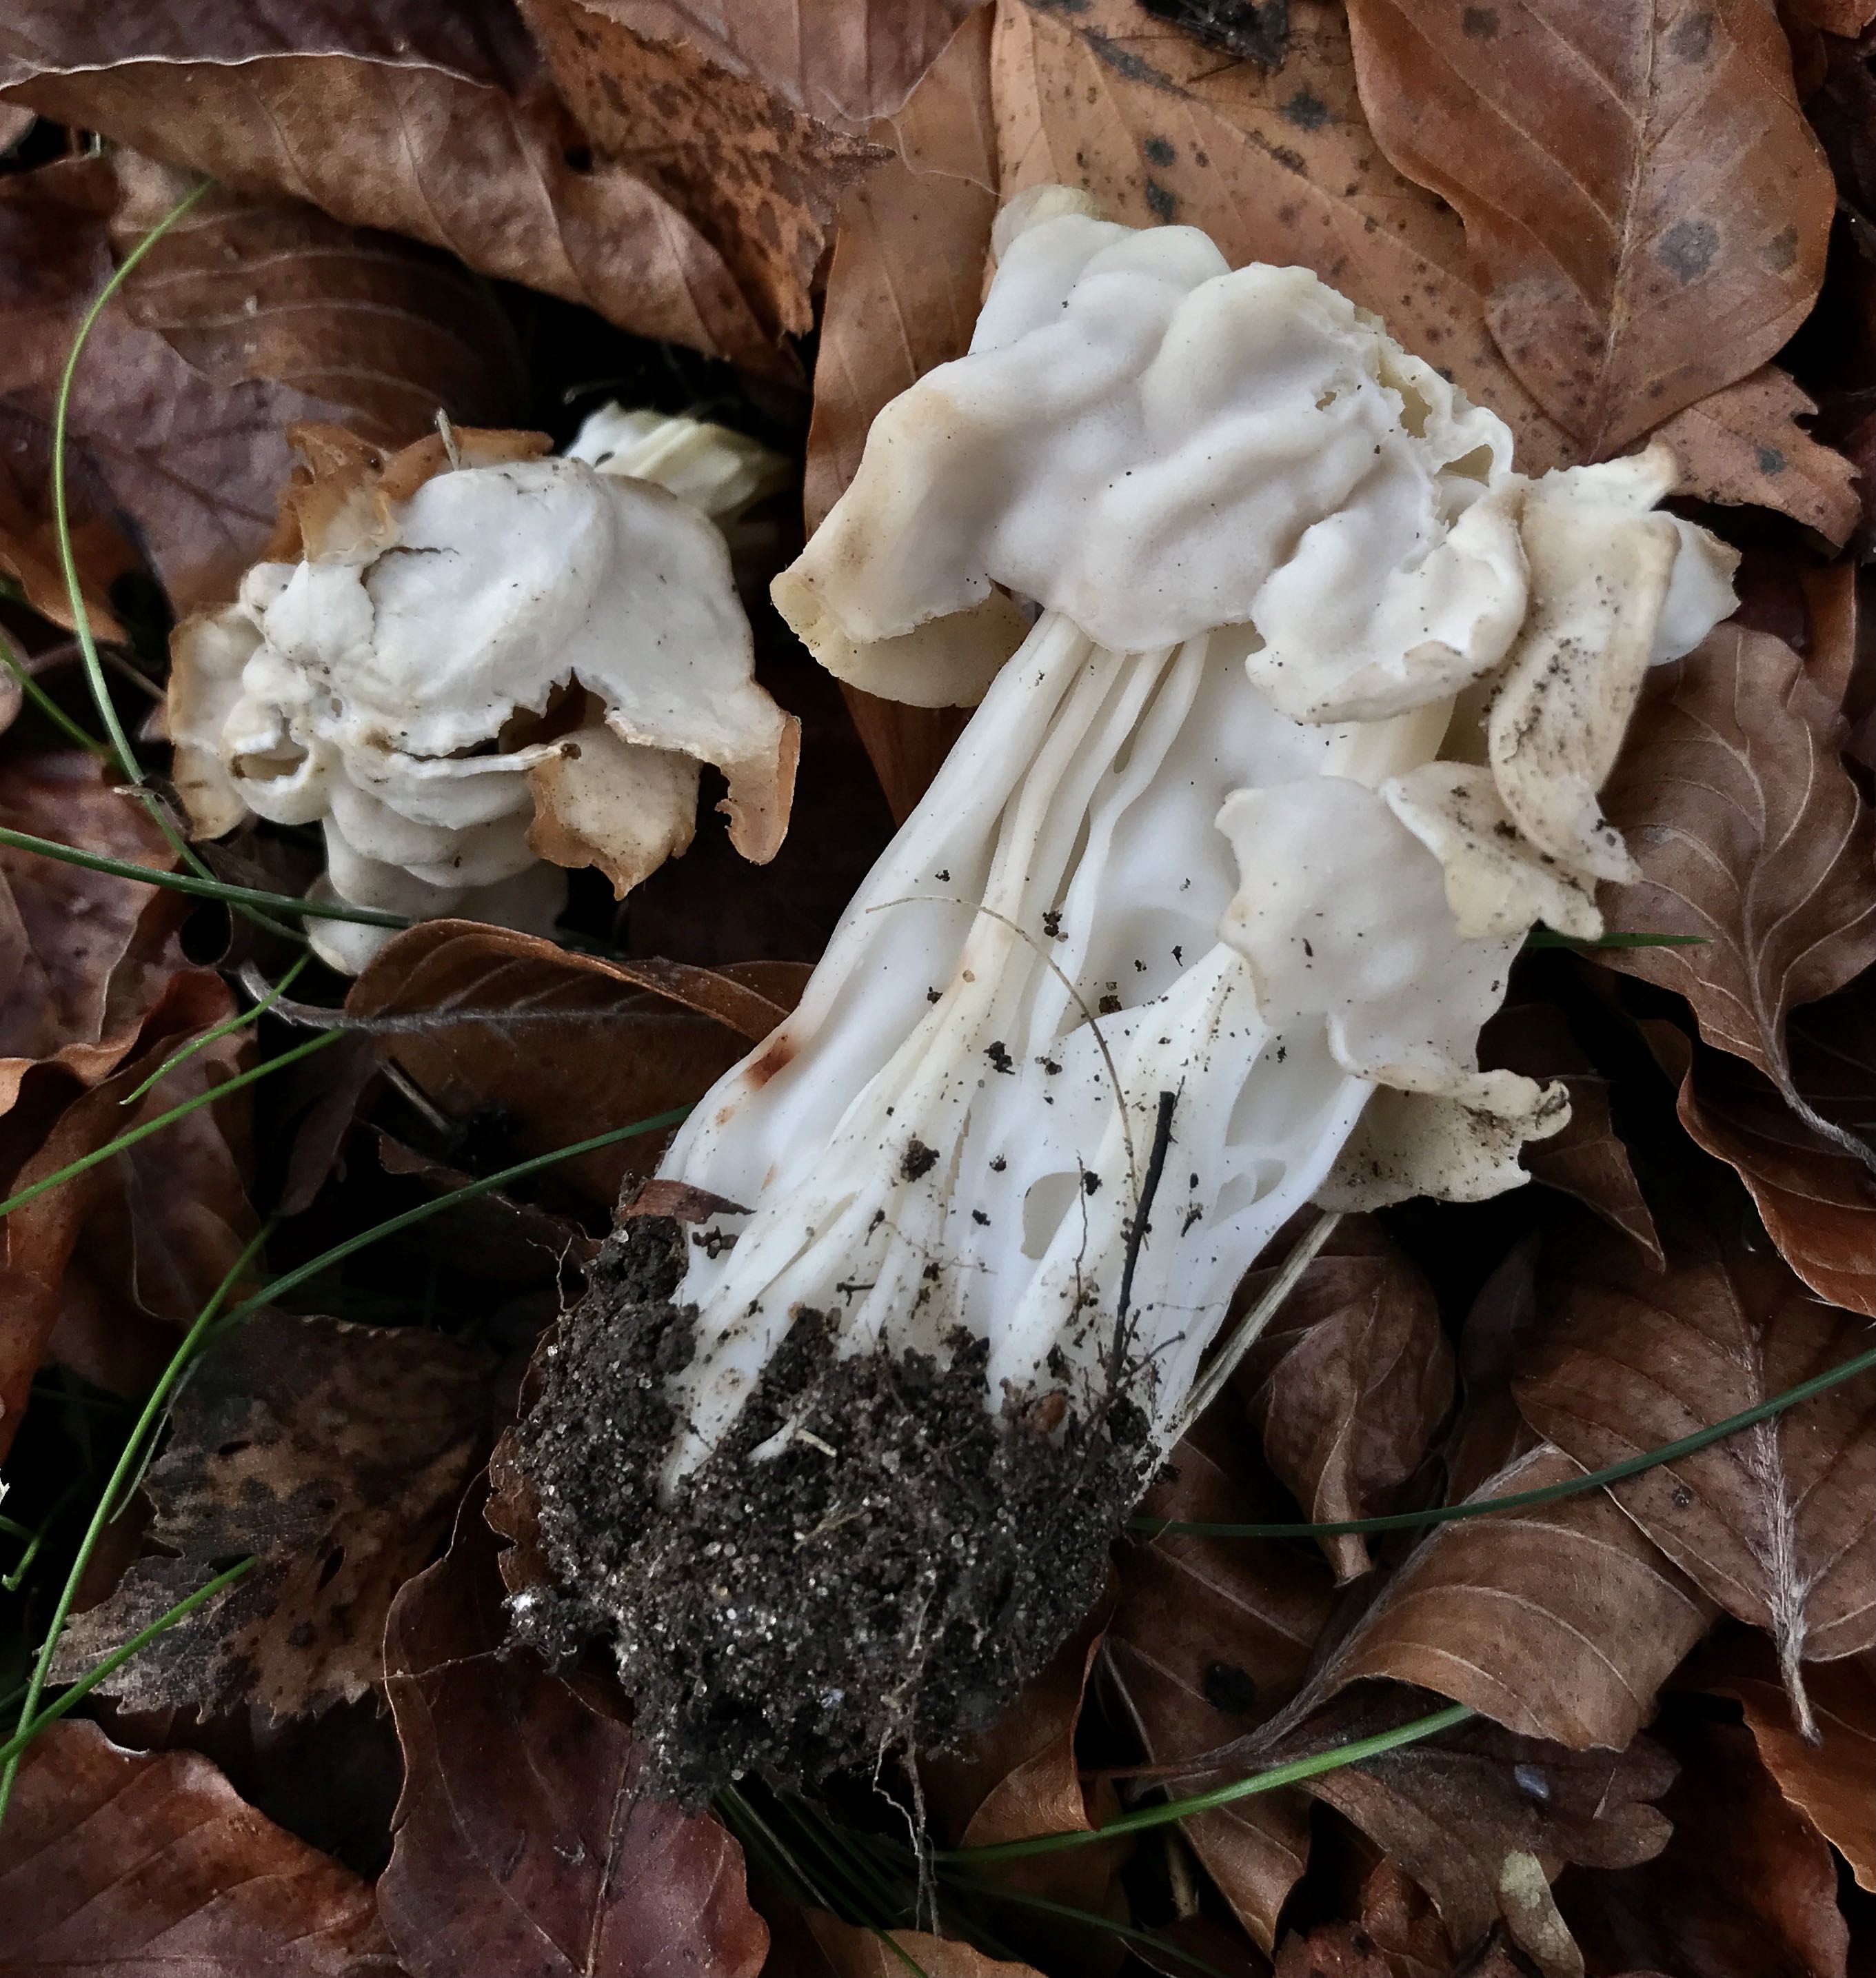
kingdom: Fungi
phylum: Ascomycota
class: Pezizomycetes
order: Pezizales
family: Helvellaceae
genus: Helvella
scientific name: Helvella crispa
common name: kruset foldhat
